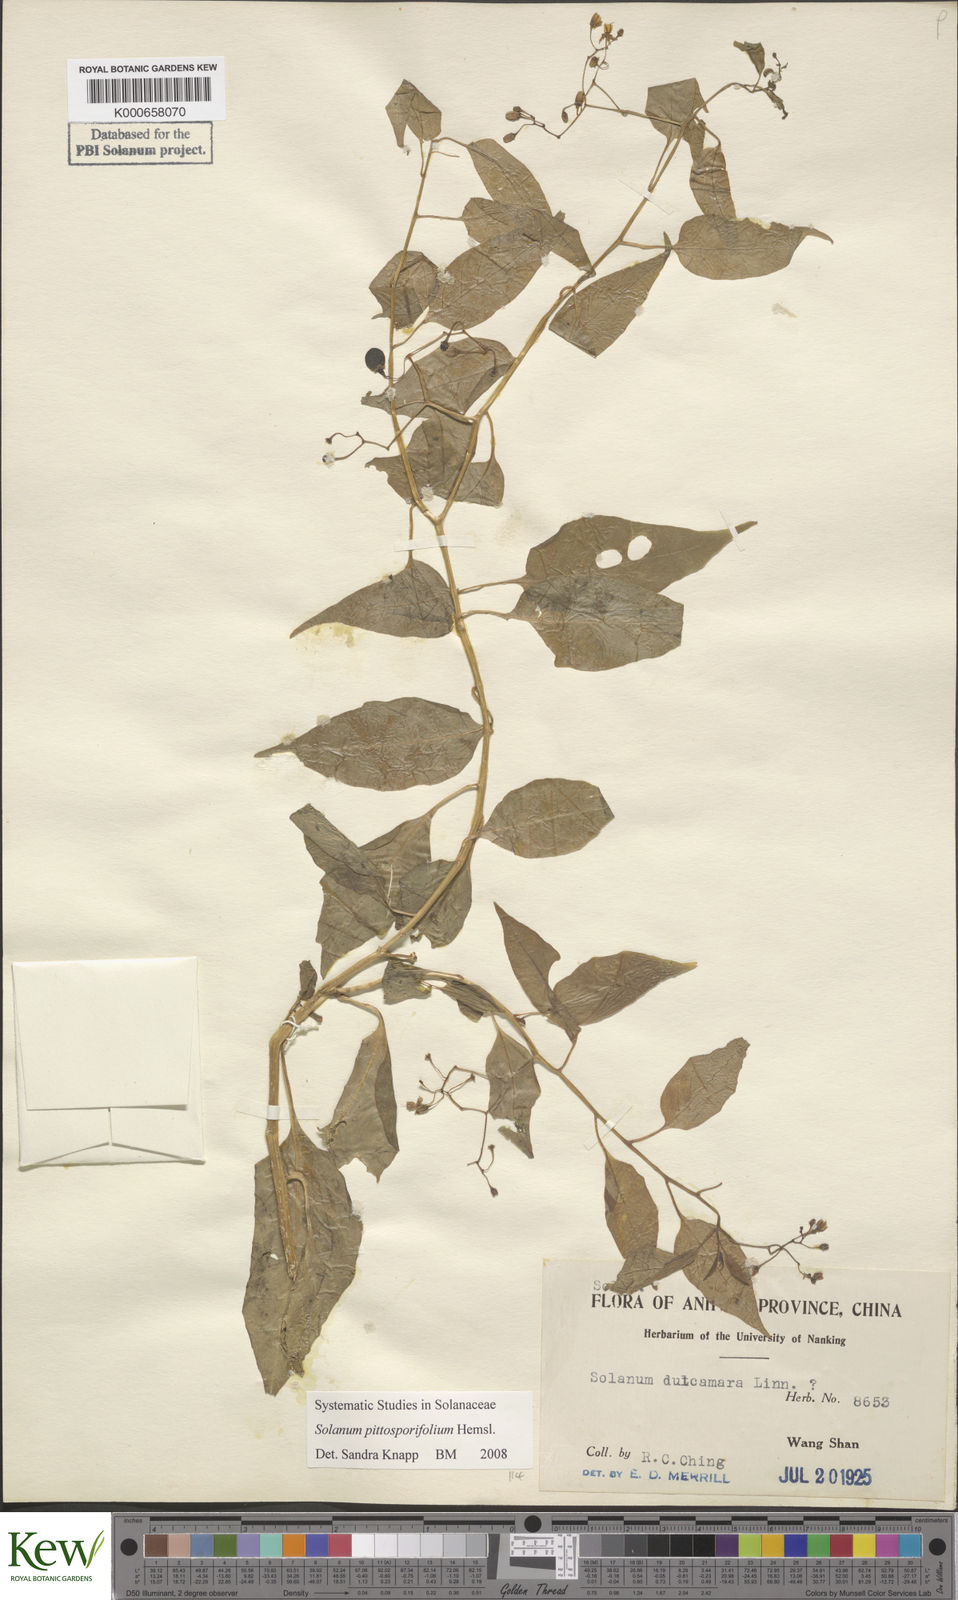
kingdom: Plantae
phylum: Tracheophyta
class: Magnoliopsida
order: Solanales
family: Solanaceae
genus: Solanum
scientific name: Solanum pittosporifolium
